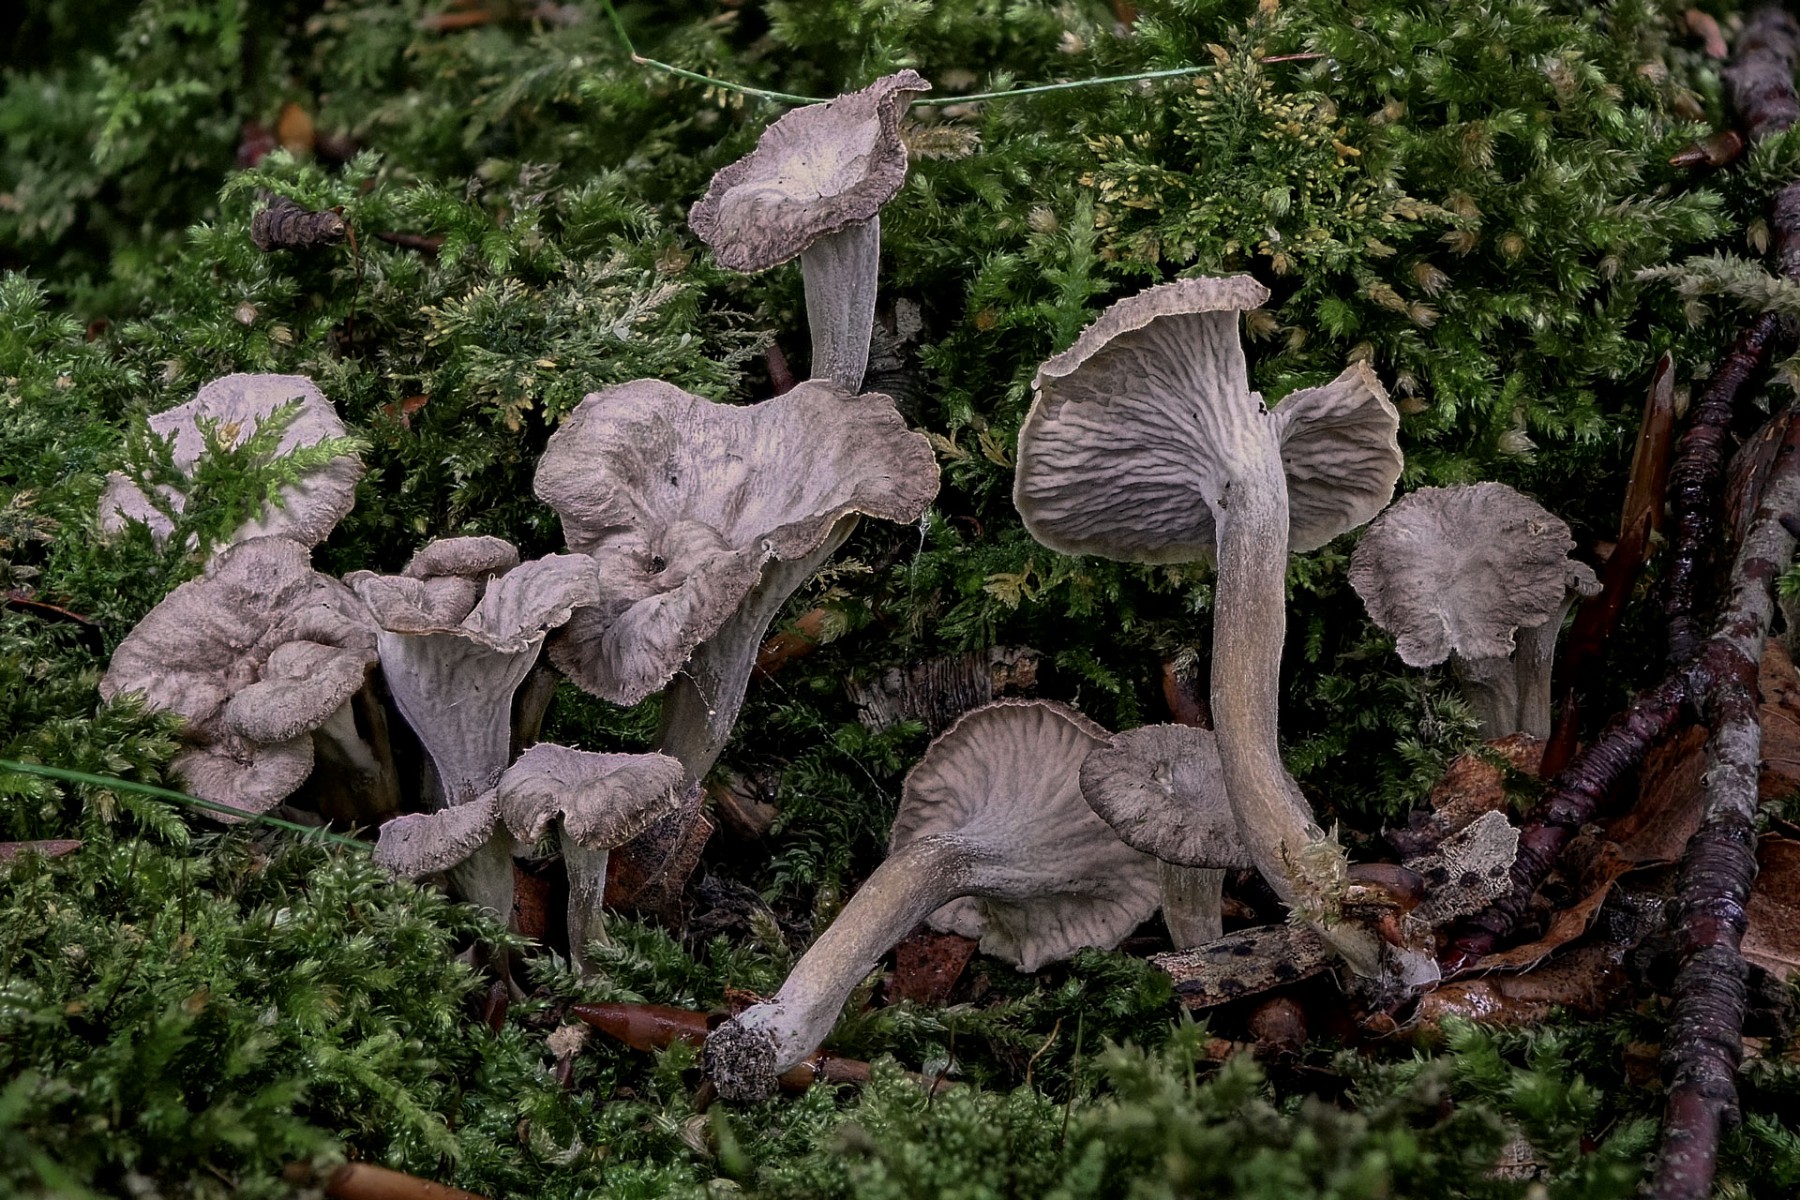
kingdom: Fungi
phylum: Basidiomycota
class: Agaricomycetes
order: Cantharellales
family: Hydnaceae
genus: Craterellus
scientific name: Craterellus undulatus
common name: liden kantarel
